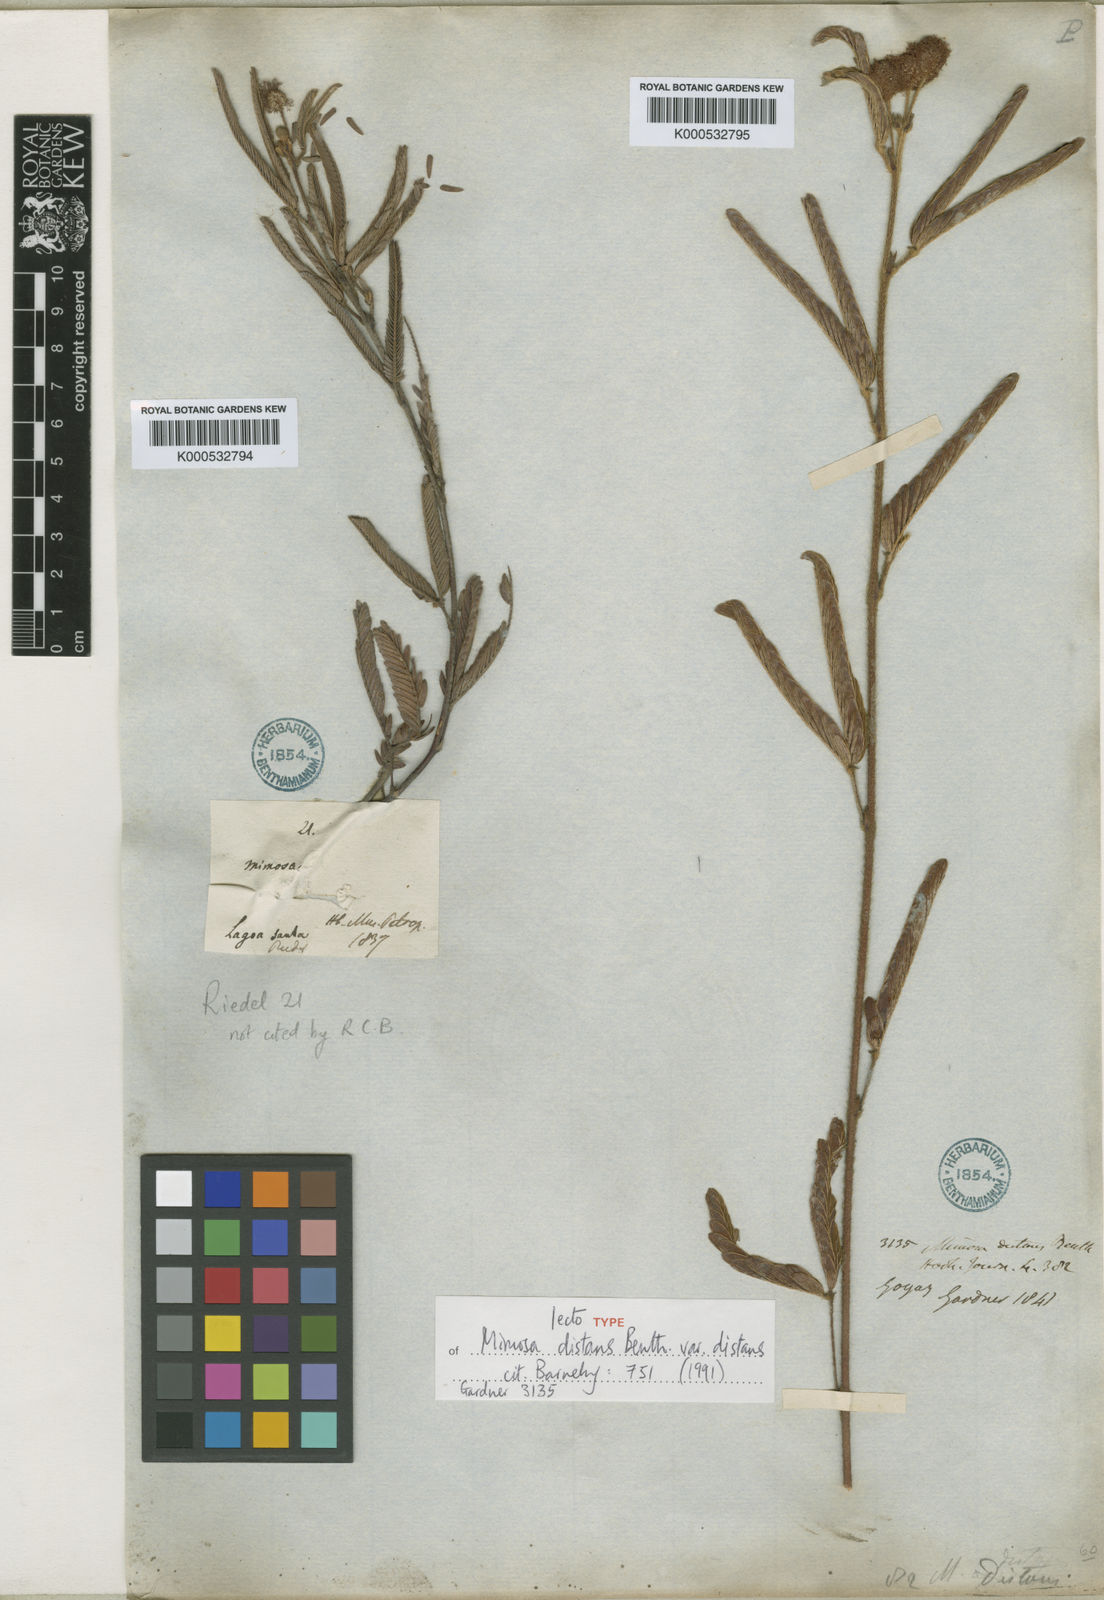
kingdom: Plantae
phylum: Tracheophyta
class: Magnoliopsida
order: Fabales
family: Fabaceae
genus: Mimosa
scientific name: Mimosa distans
